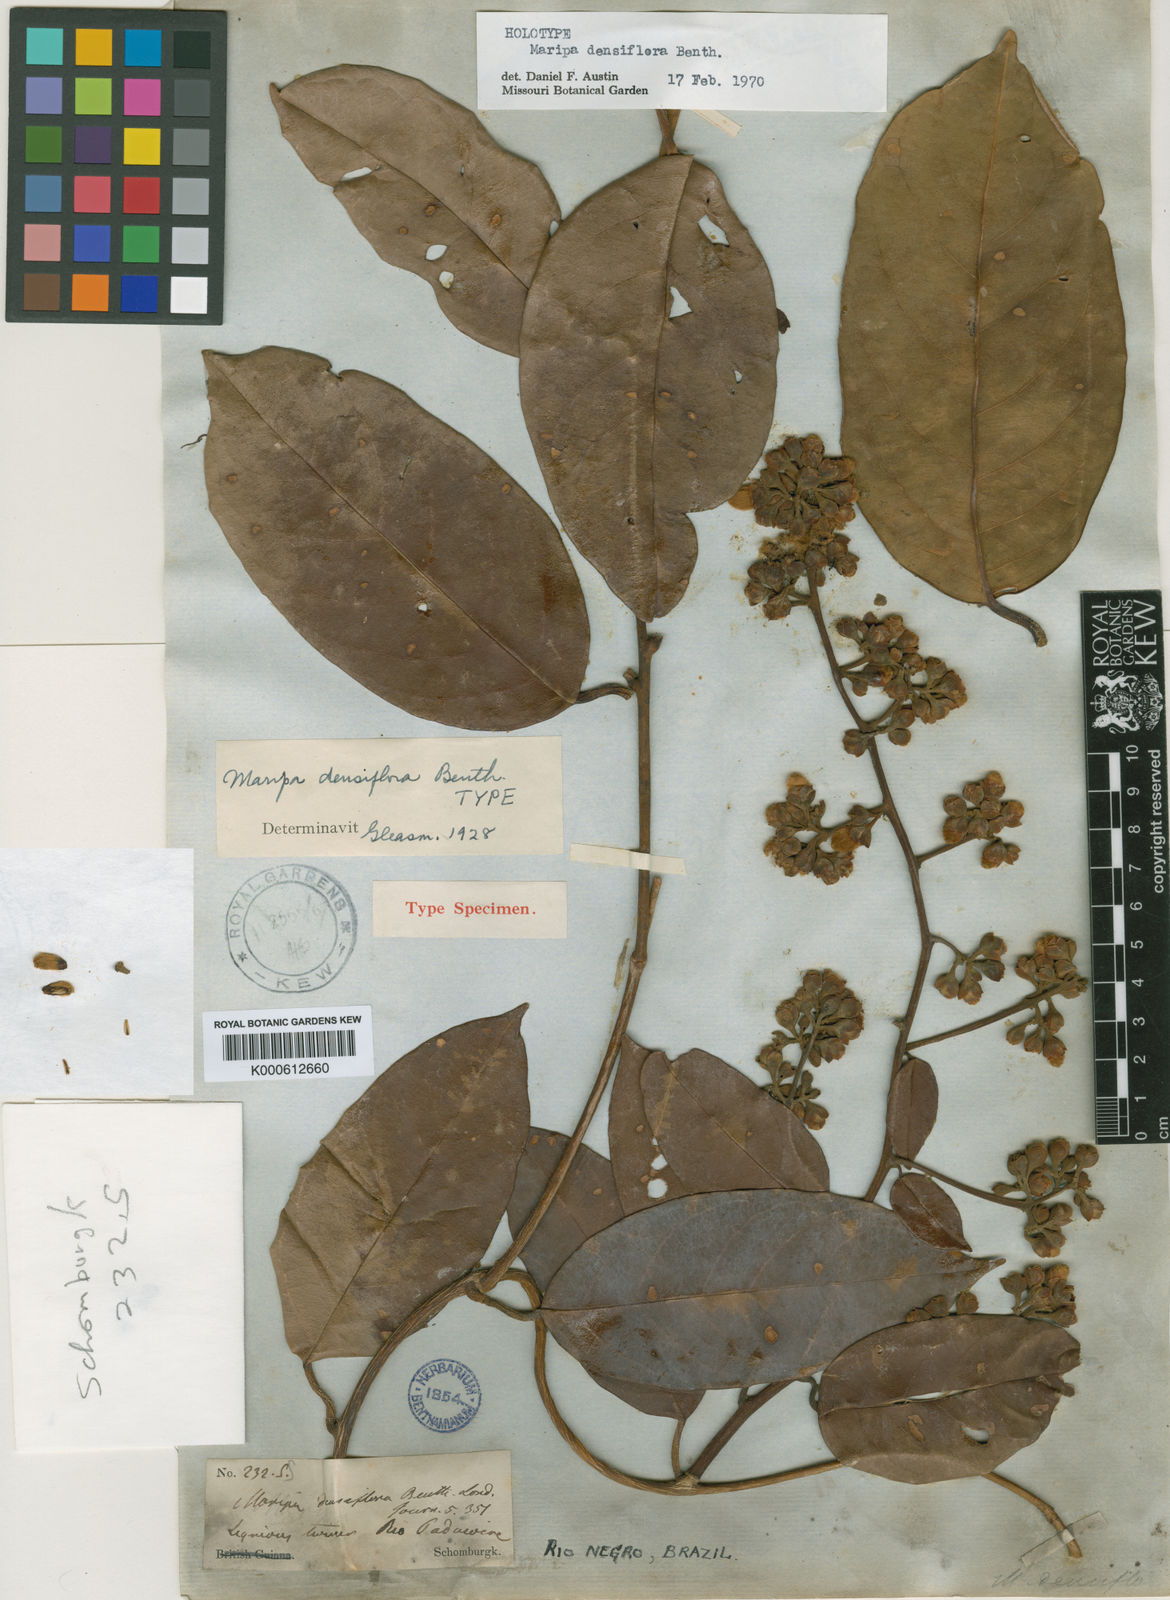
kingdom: Plantae
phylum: Tracheophyta
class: Magnoliopsida
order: Solanales
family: Convolvulaceae
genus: Maripa
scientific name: Maripa densiflora
